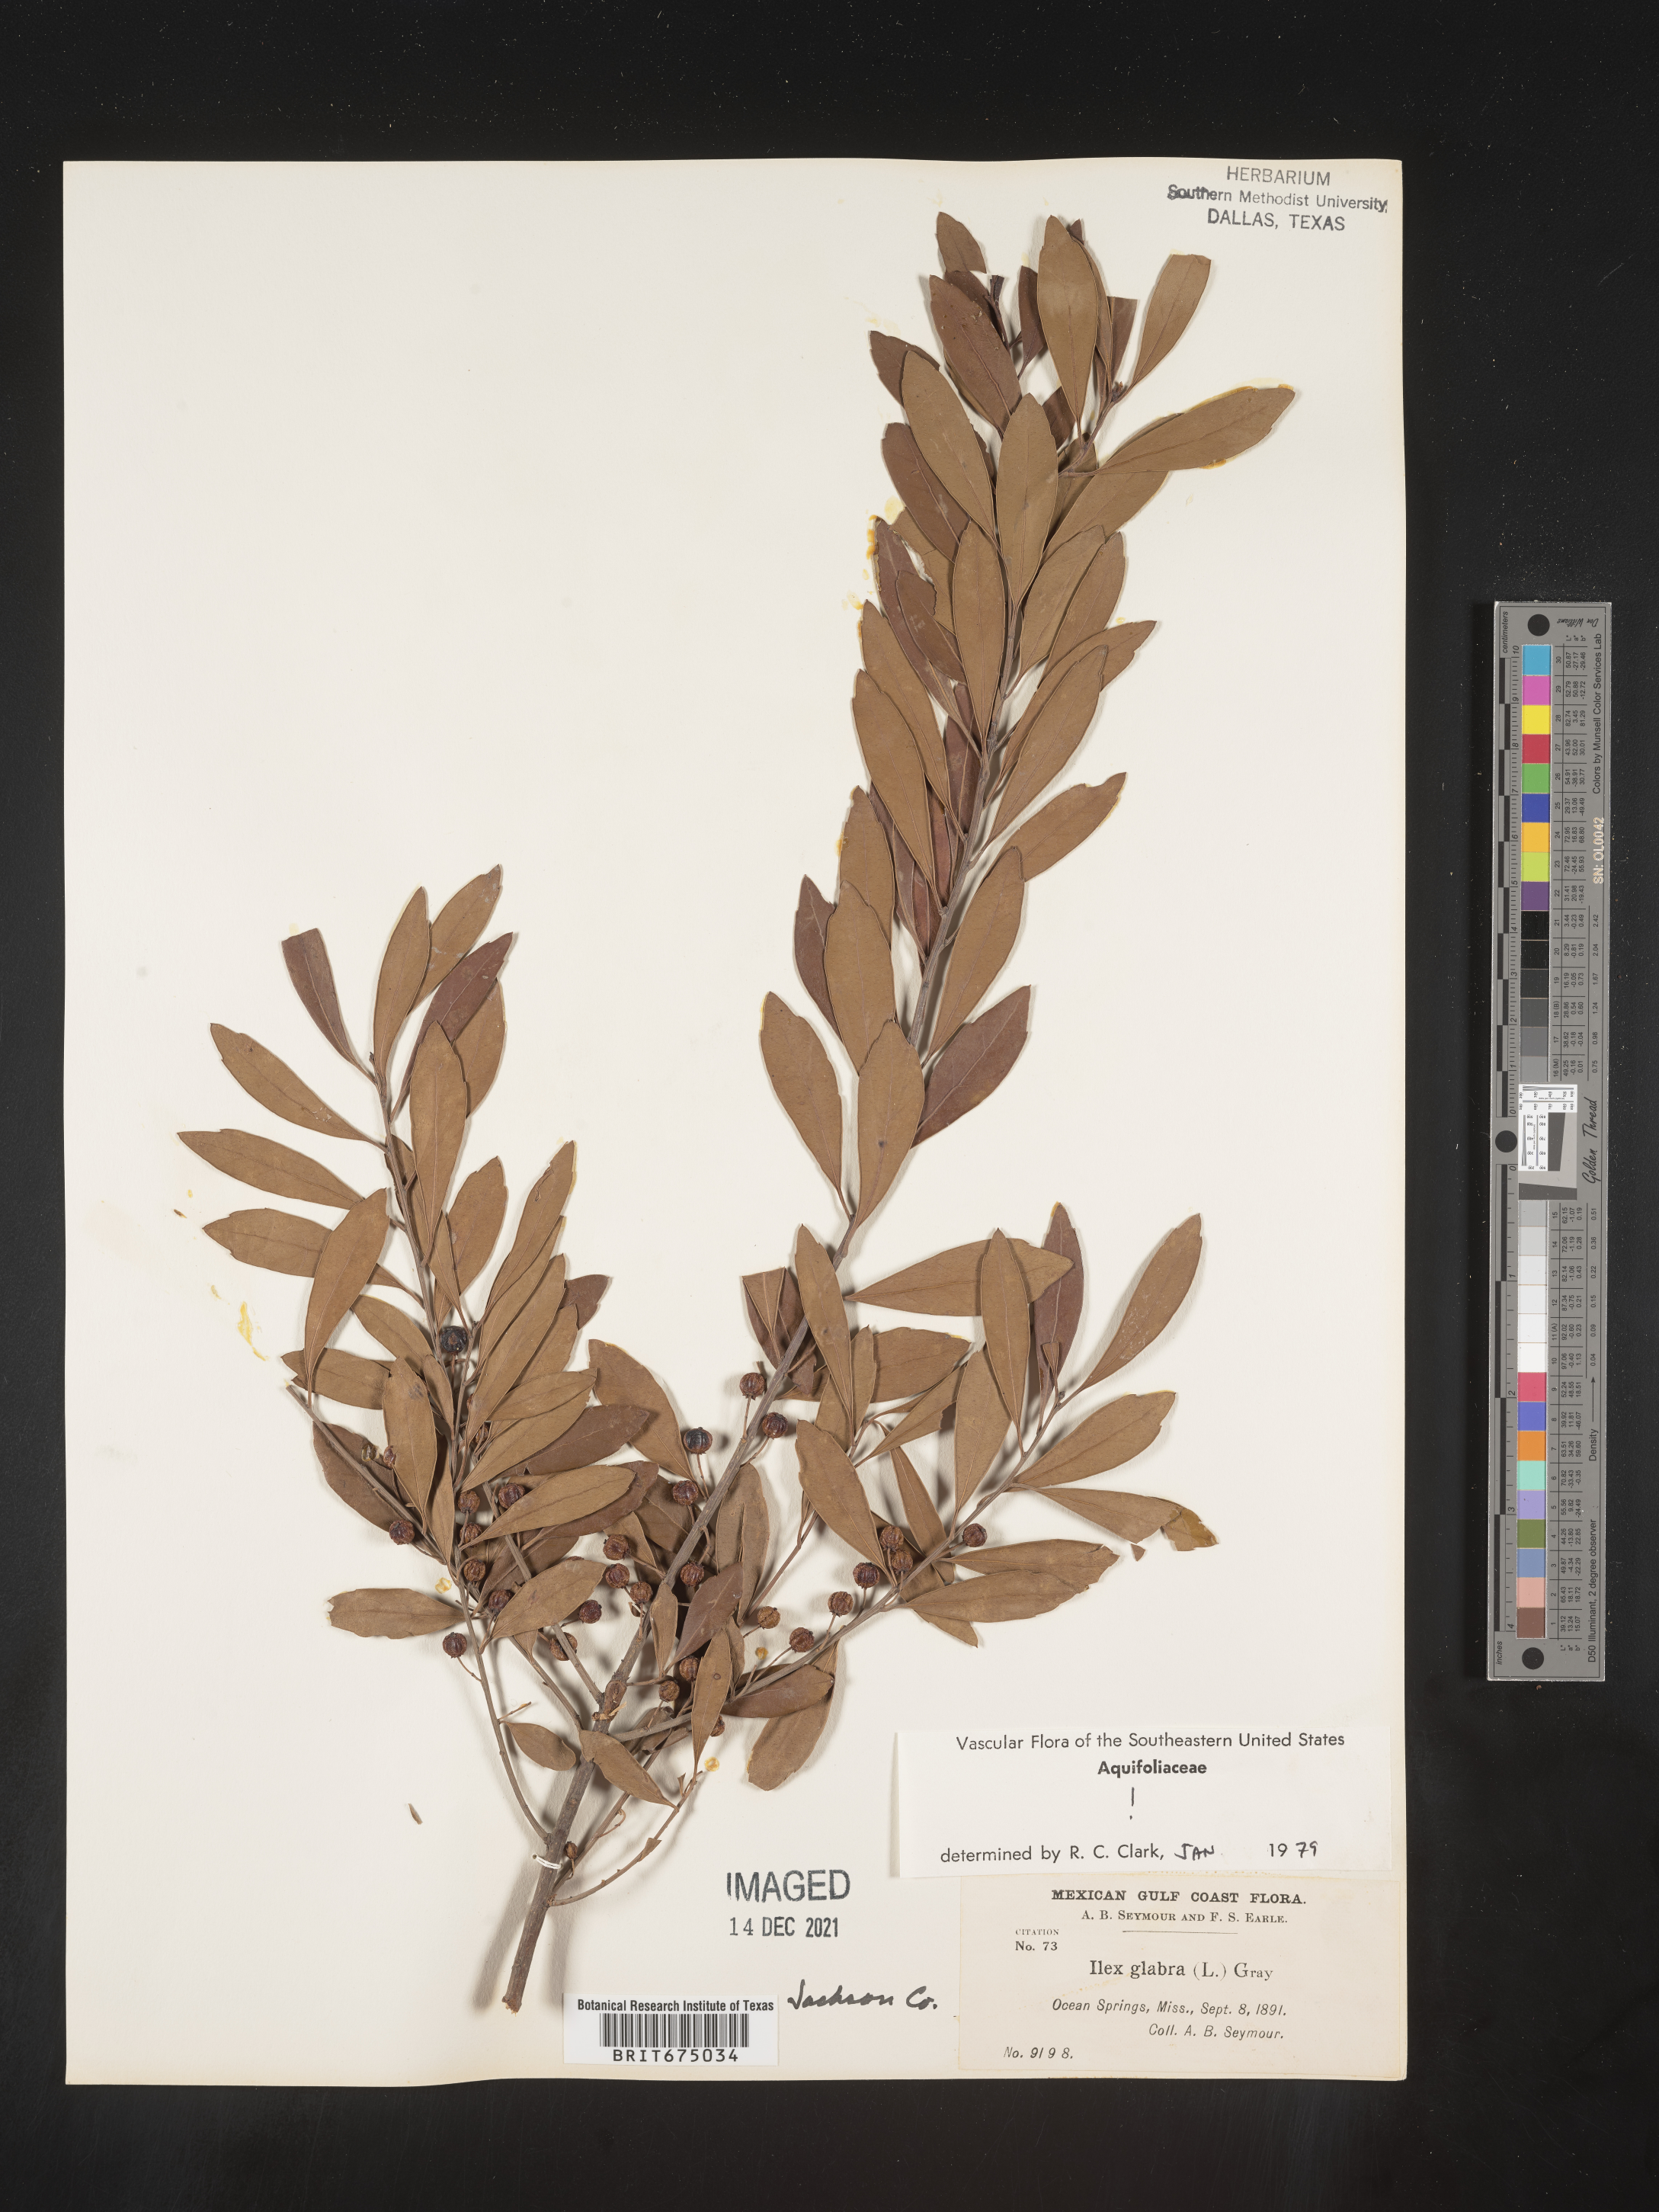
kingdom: Plantae
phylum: Tracheophyta
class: Magnoliopsida
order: Aquifoliales
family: Aquifoliaceae
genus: Ilex
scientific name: Ilex glabra
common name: Bitter gallberry
